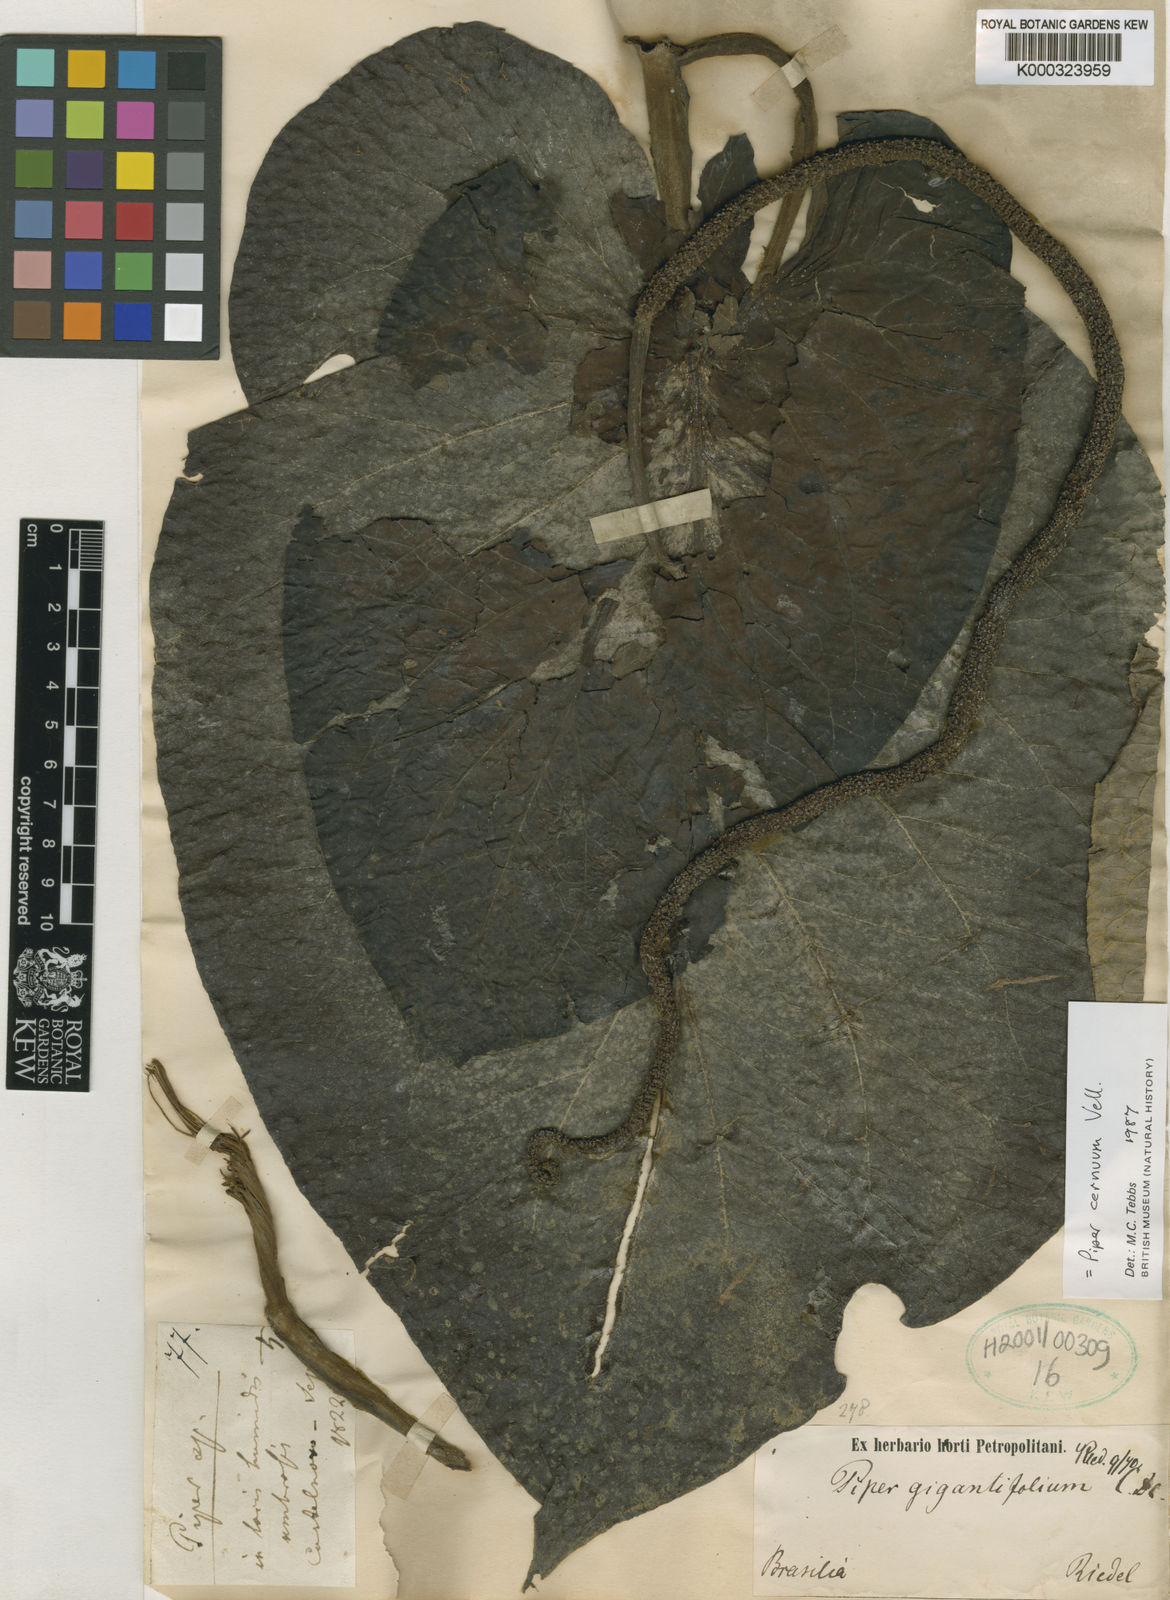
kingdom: Plantae
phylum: Tracheophyta
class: Magnoliopsida
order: Piperales
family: Piperaceae
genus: Piper
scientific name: Piper cernuum
